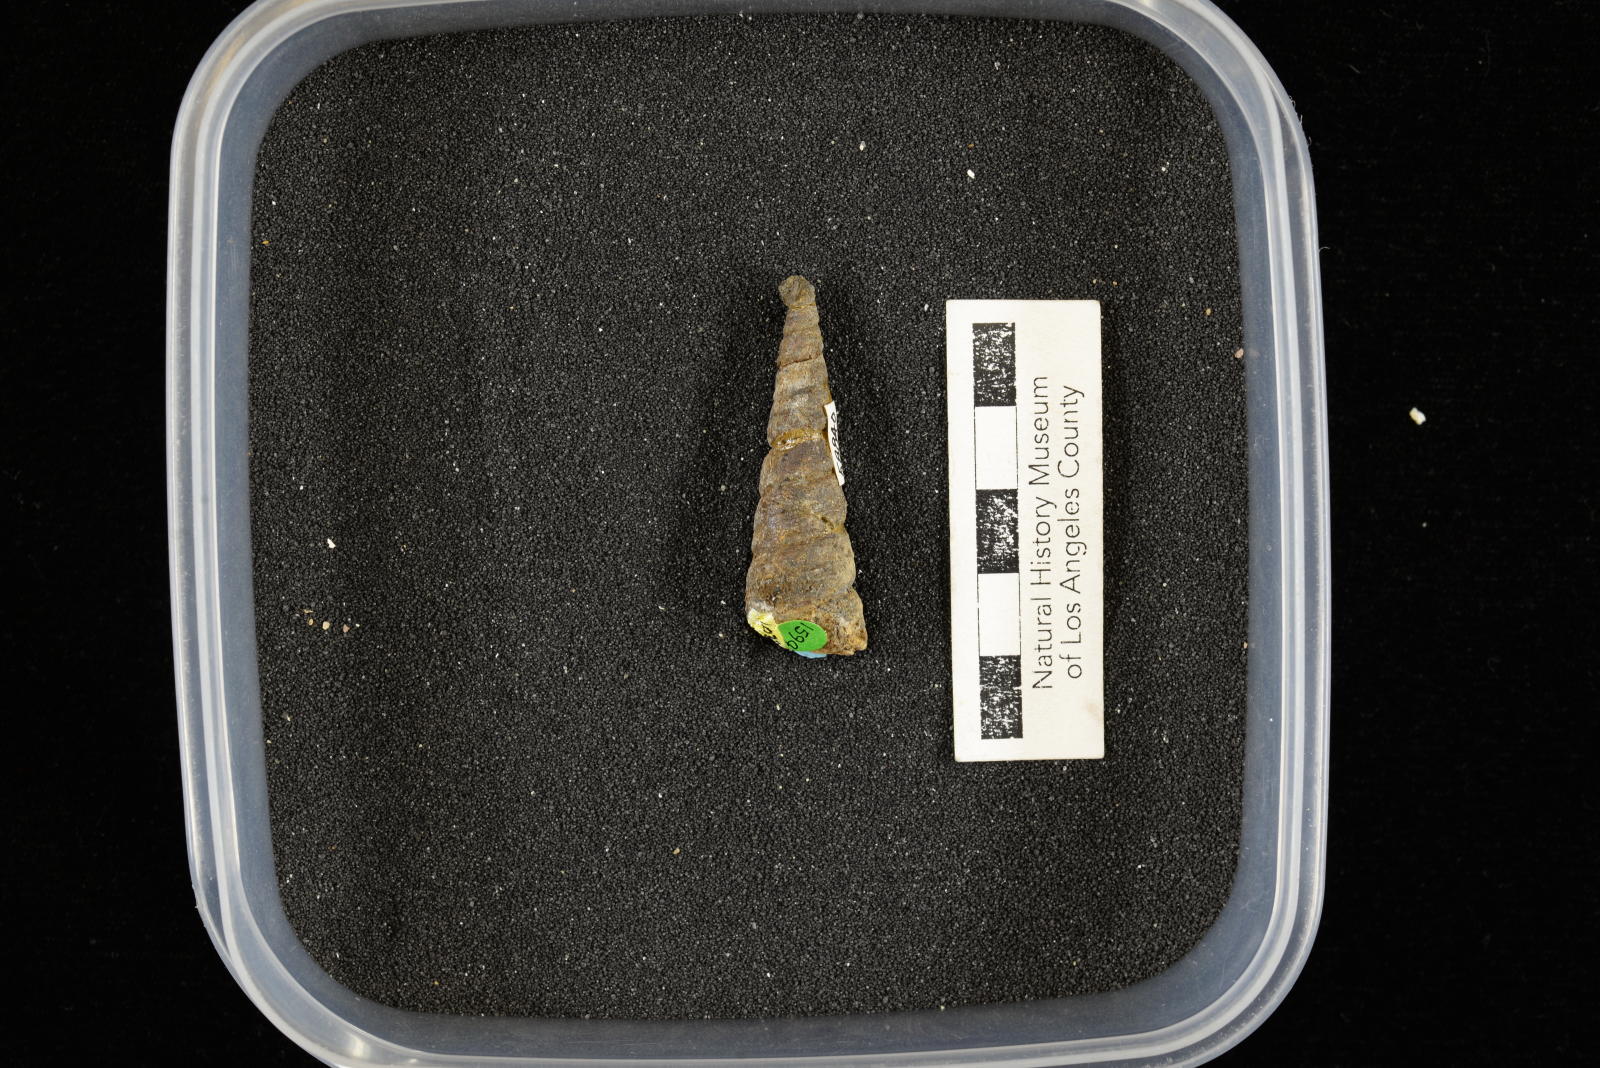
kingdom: Animalia
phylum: Mollusca
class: Gastropoda
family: Turritellidae
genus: Turritella
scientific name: Turritella chaneyi
